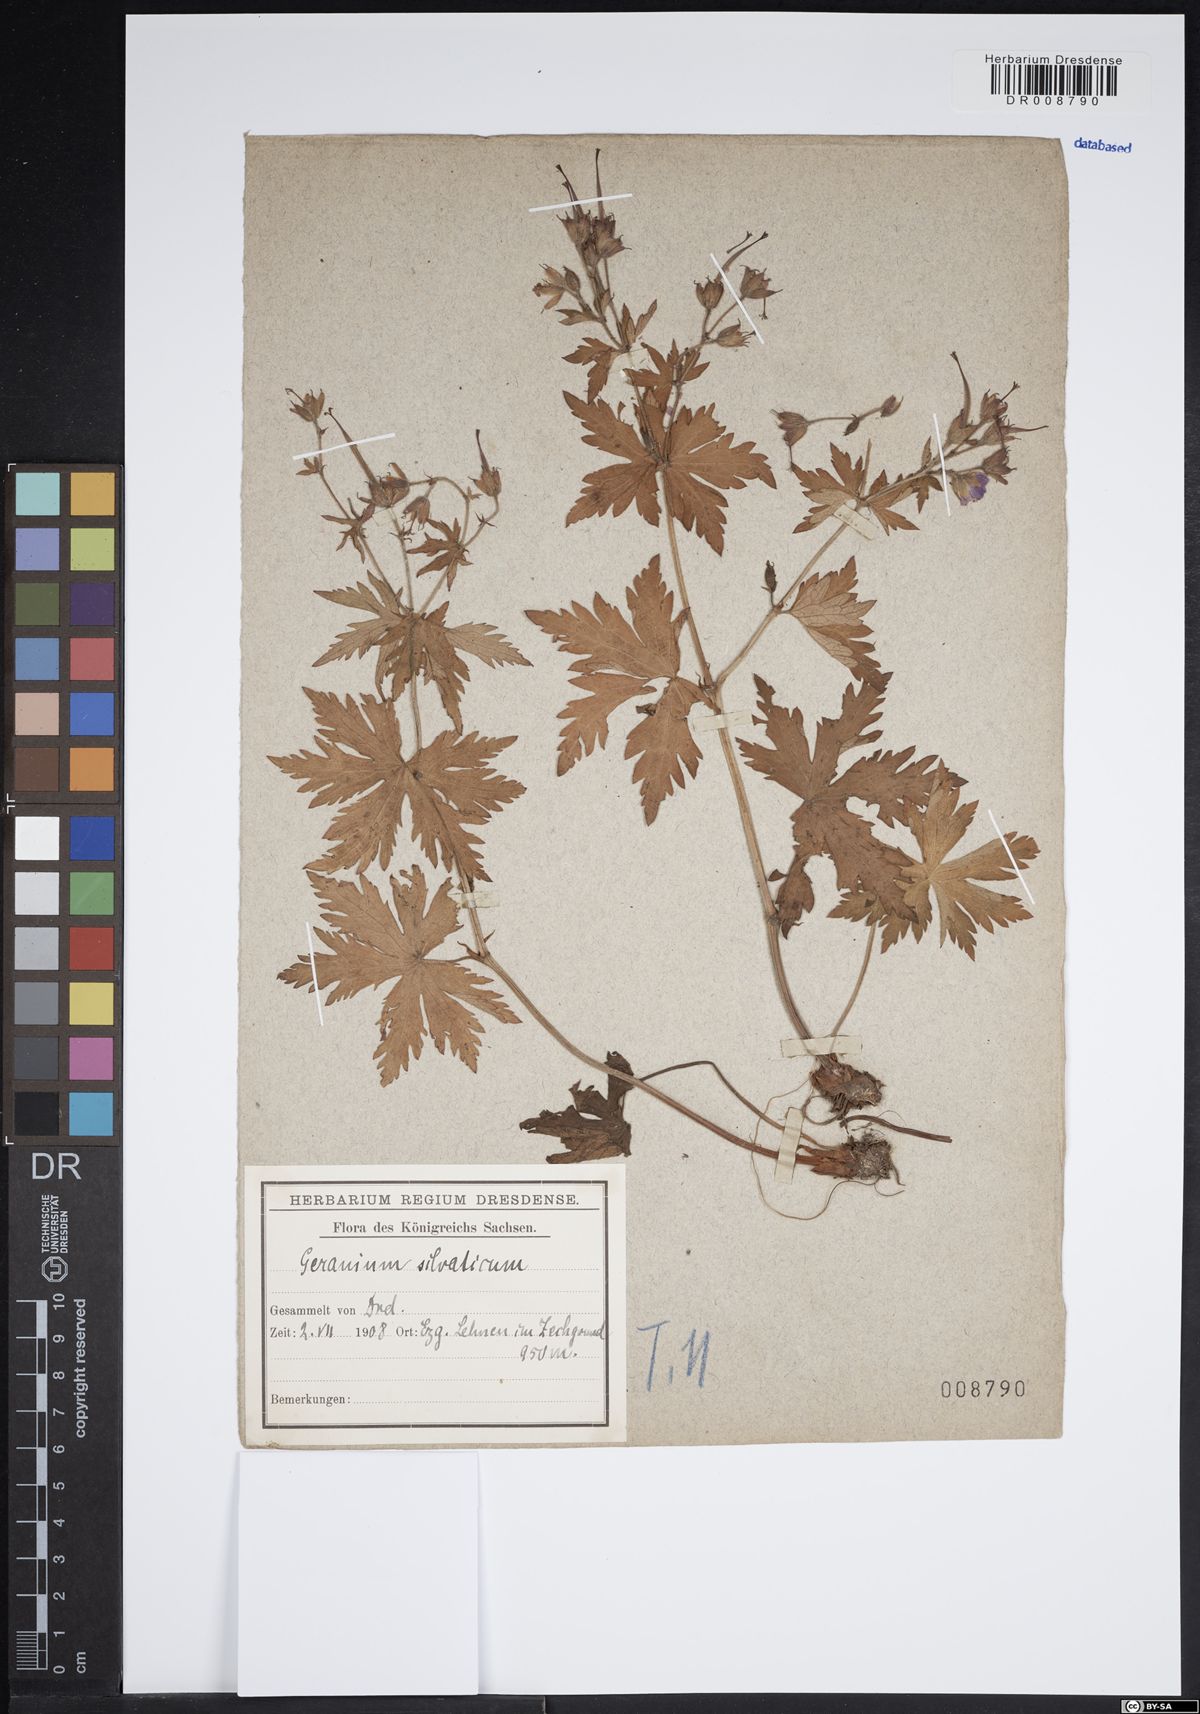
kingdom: Plantae
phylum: Tracheophyta
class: Magnoliopsida
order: Geraniales
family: Geraniaceae
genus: Geranium
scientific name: Geranium sylvaticum
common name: Wood crane's-bill
